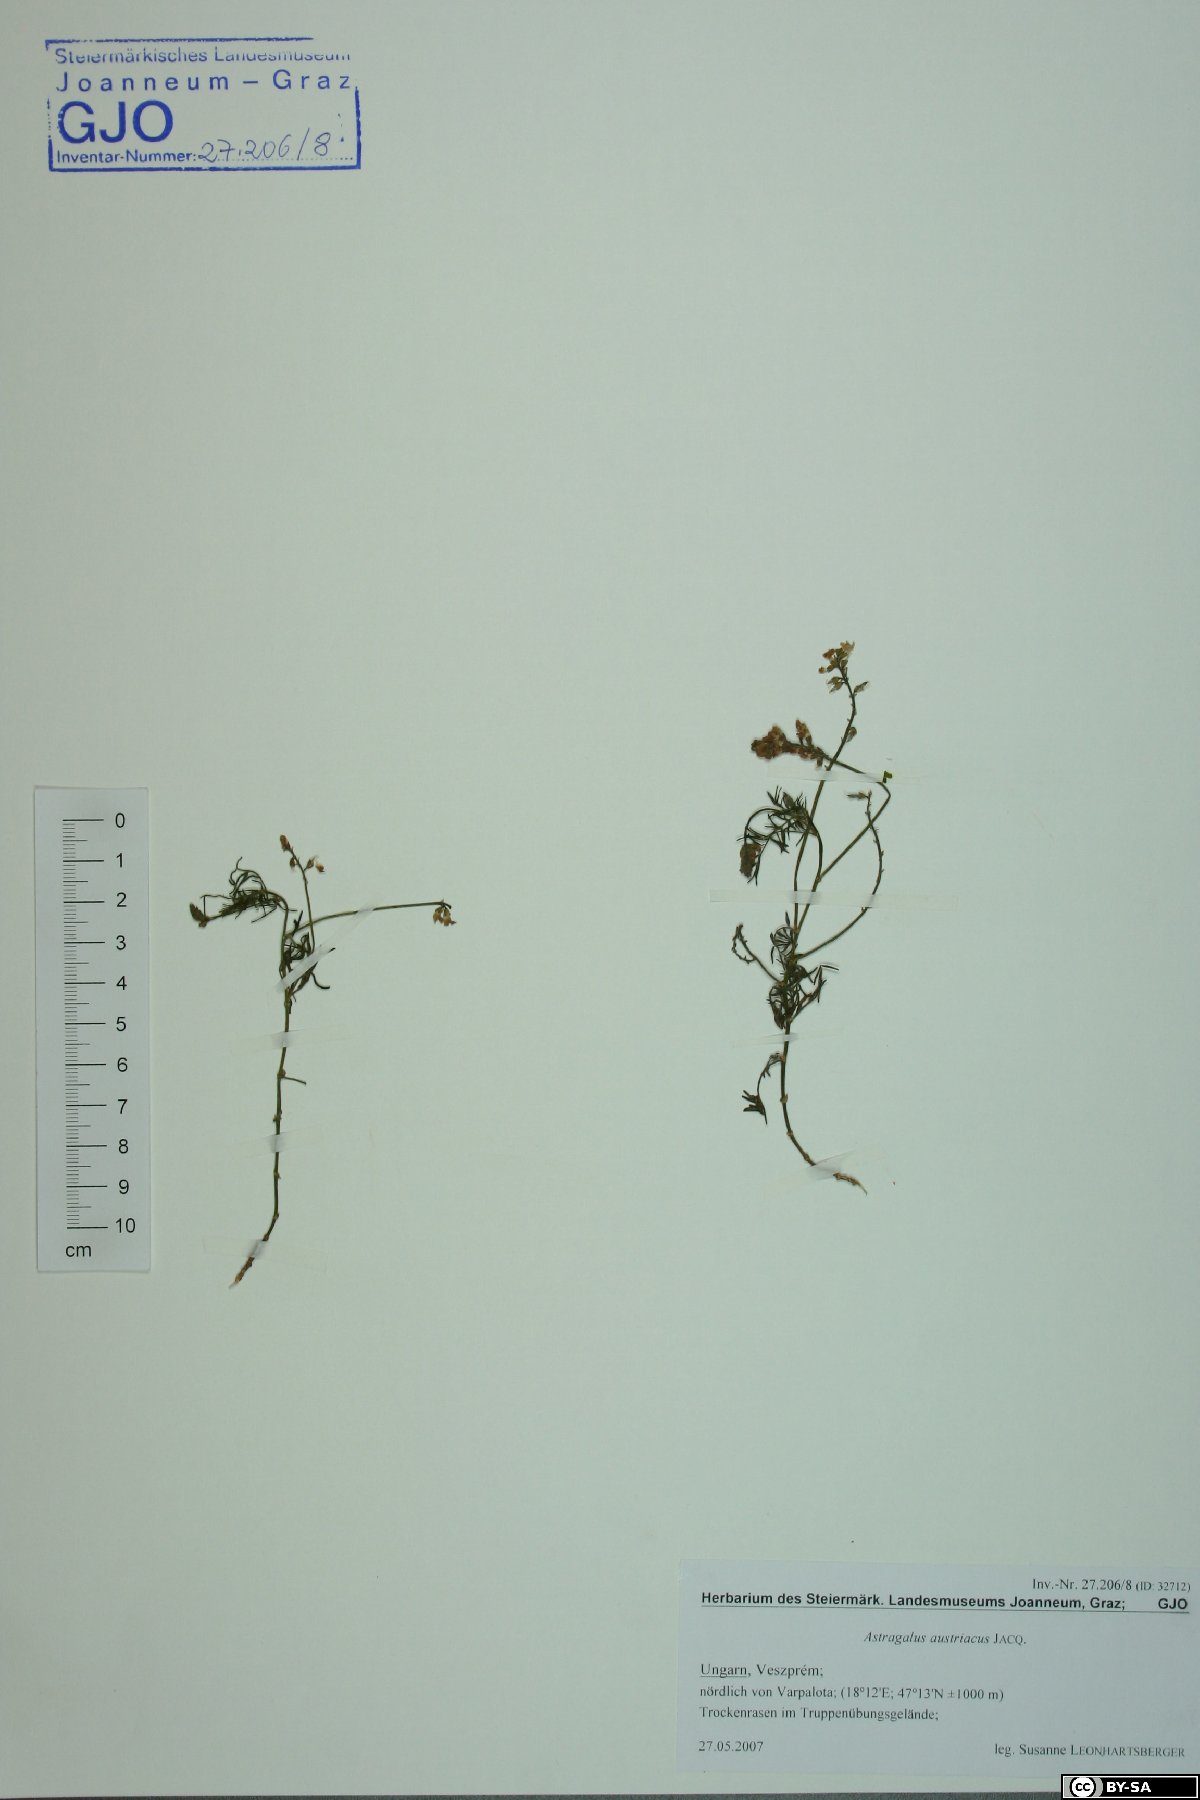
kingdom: Plantae
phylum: Tracheophyta
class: Magnoliopsida
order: Fabales
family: Fabaceae
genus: Astragalus
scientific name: Astragalus austriacus
